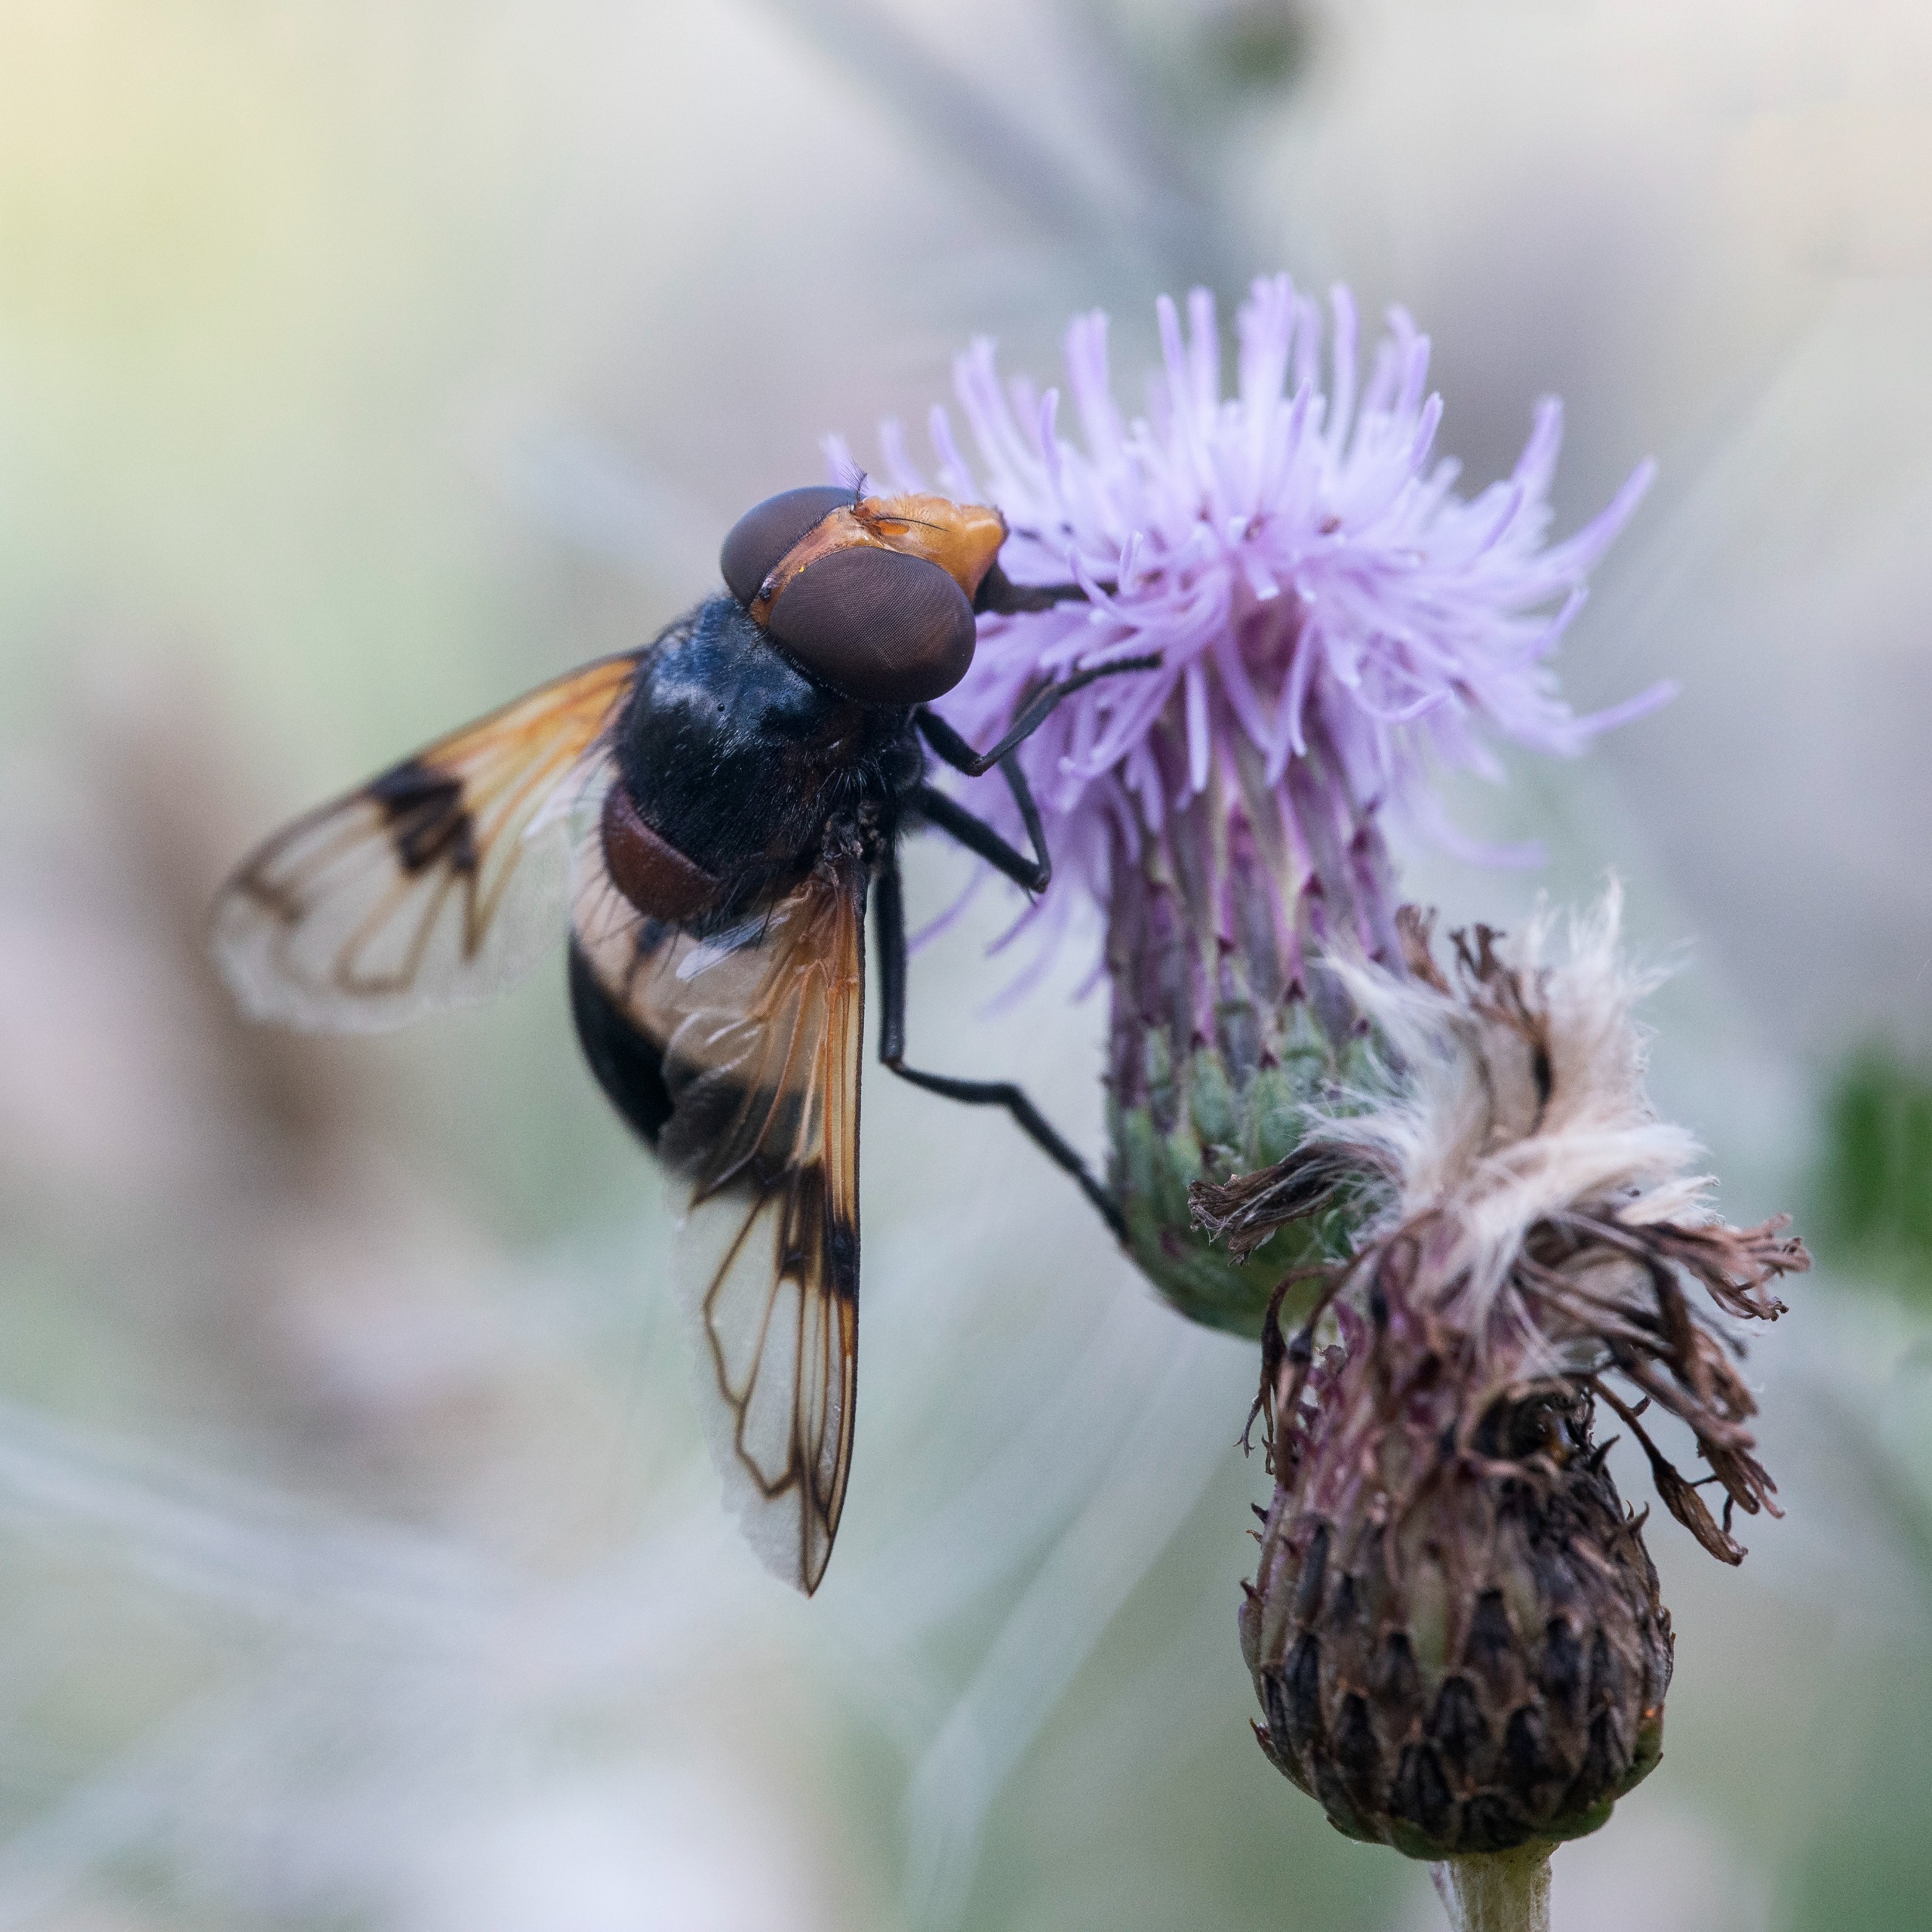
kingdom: Animalia
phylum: Arthropoda
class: Insecta
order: Diptera
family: Syrphidae
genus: Volucella
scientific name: Volucella pellucens
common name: Hvidbåndet humlesvirreflue
